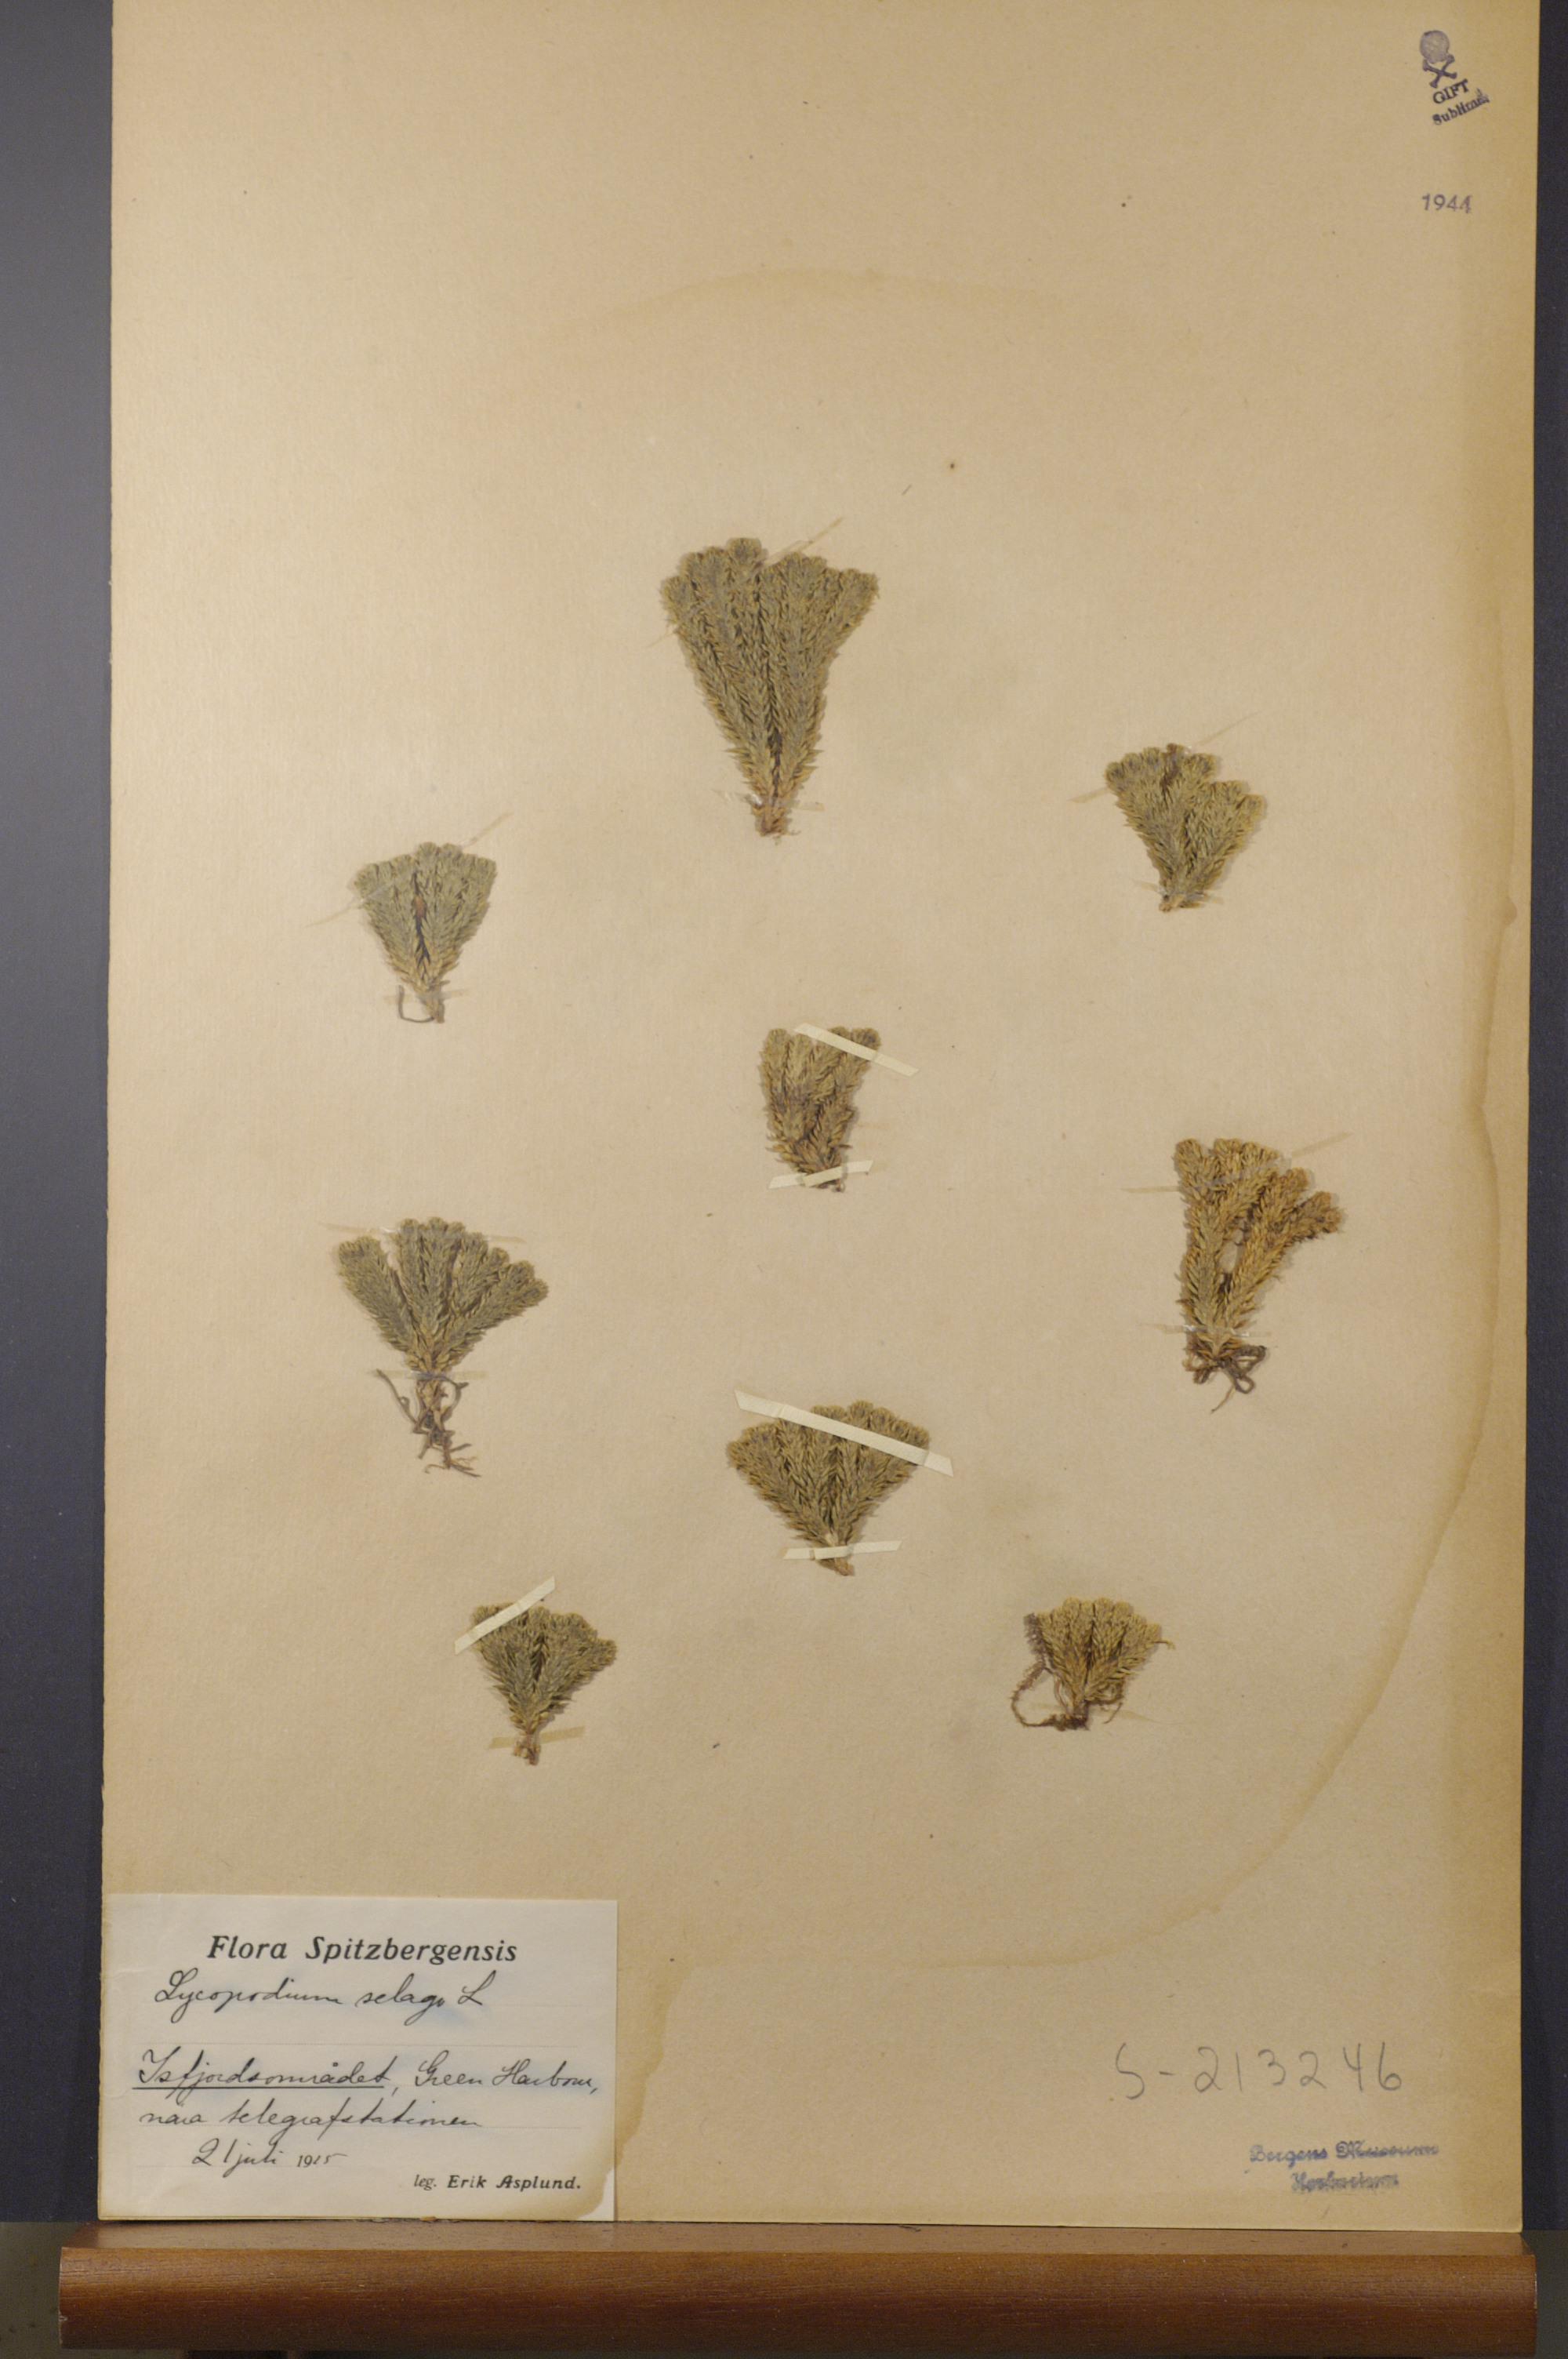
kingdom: Plantae
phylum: Tracheophyta
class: Lycopodiopsida
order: Lycopodiales
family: Lycopodiaceae
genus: Huperzia
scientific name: Huperzia selago
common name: Northern firmoss
